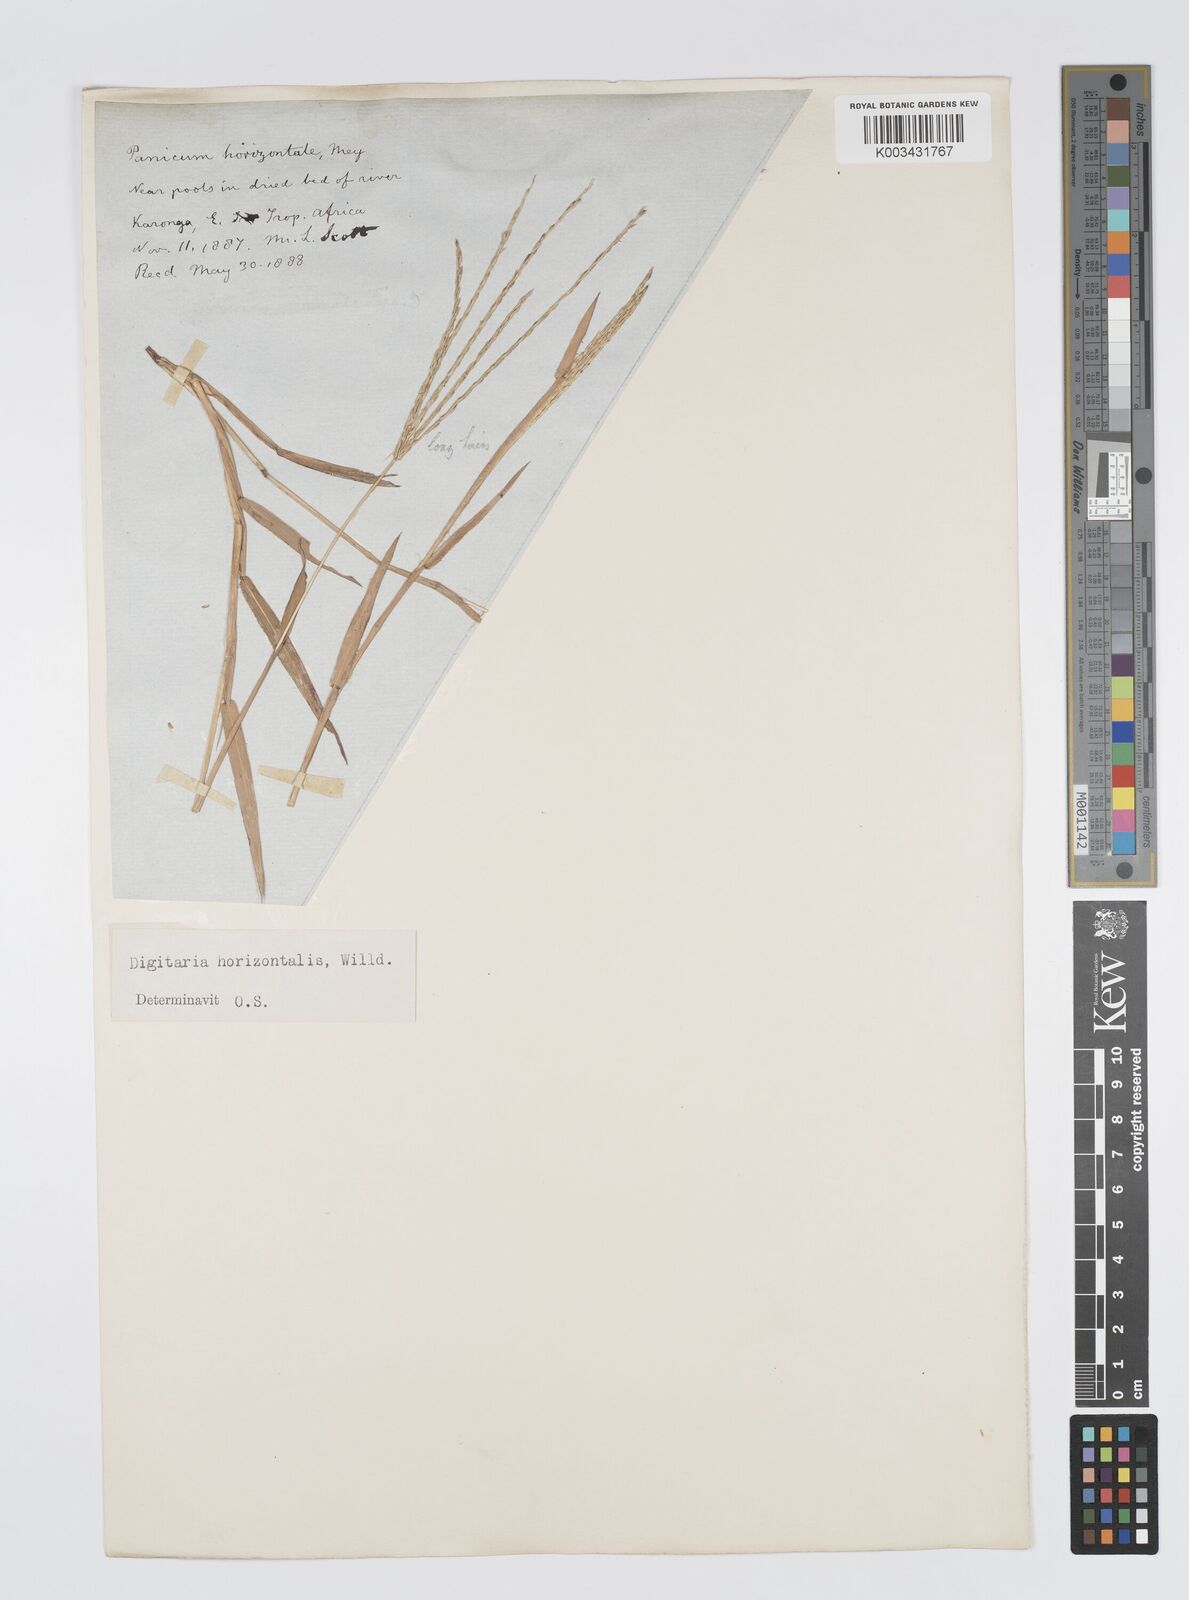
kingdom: Plantae
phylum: Tracheophyta
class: Liliopsida
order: Poales
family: Poaceae
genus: Digitaria
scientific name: Digitaria nuda
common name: Naked crabgrass
